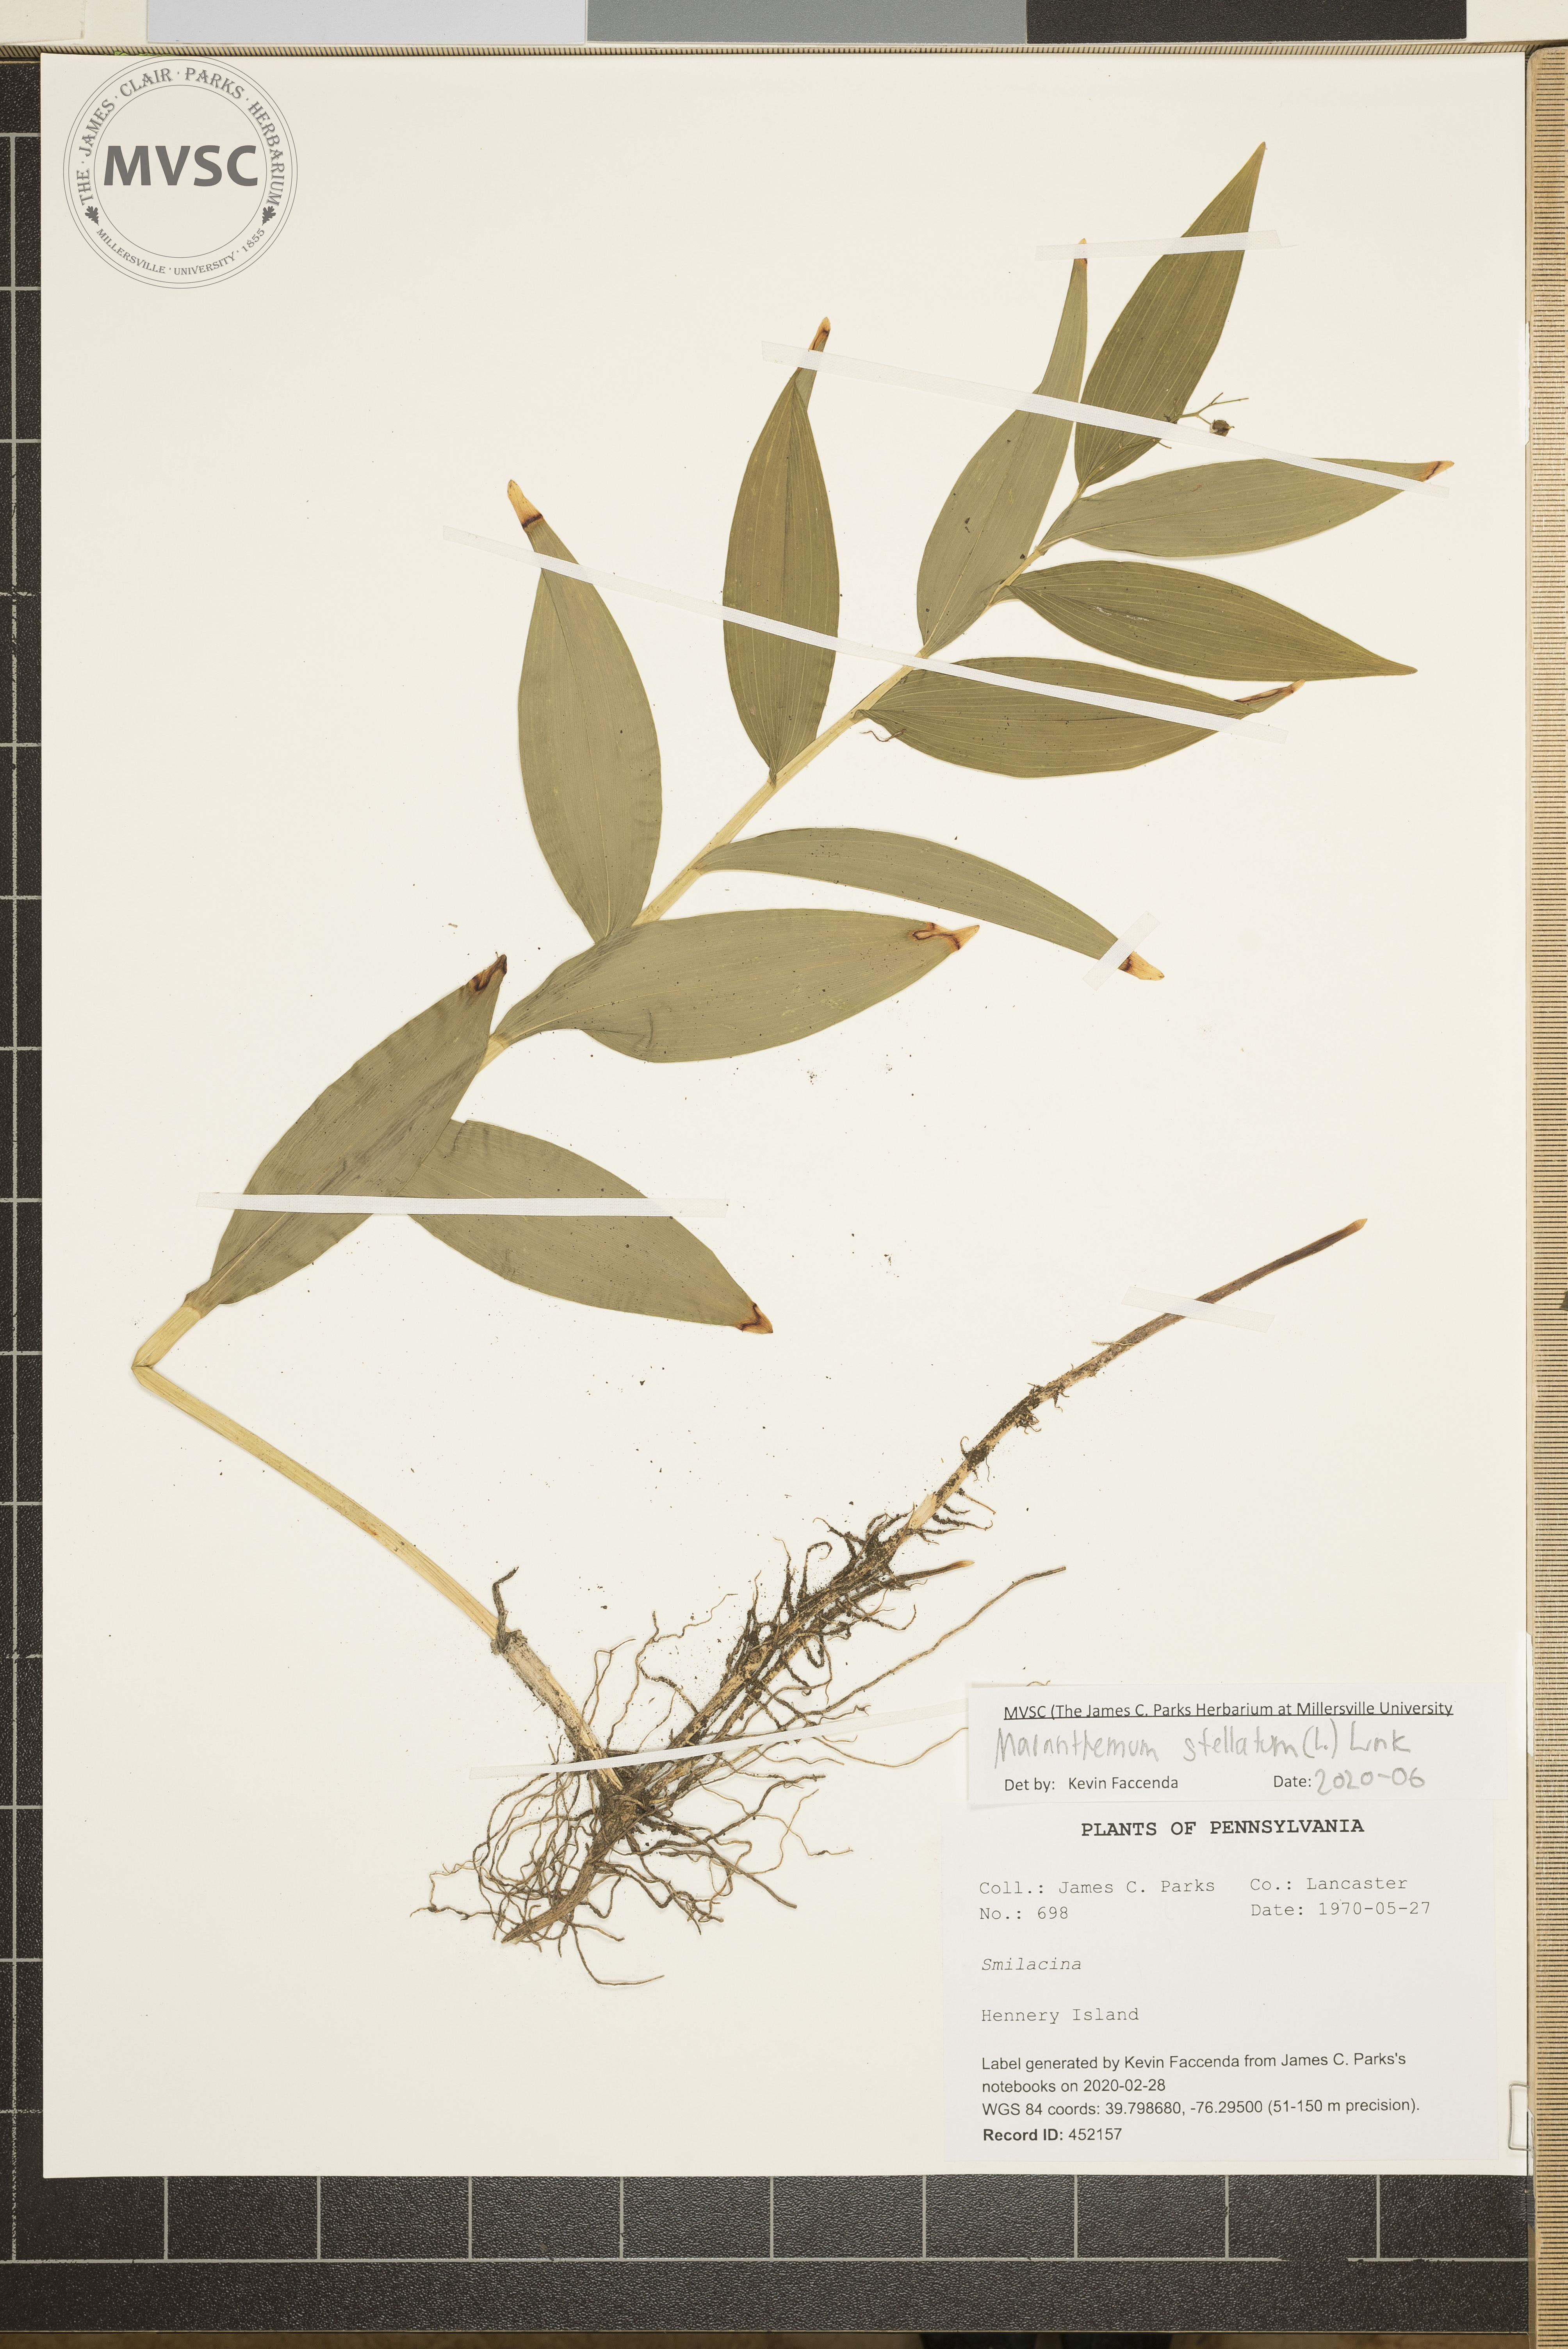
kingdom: Plantae
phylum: Tracheophyta
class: Liliopsida
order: Asparagales
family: Asparagaceae
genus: Maianthemum
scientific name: Maianthemum stellatum
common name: Little false solomon's seal
